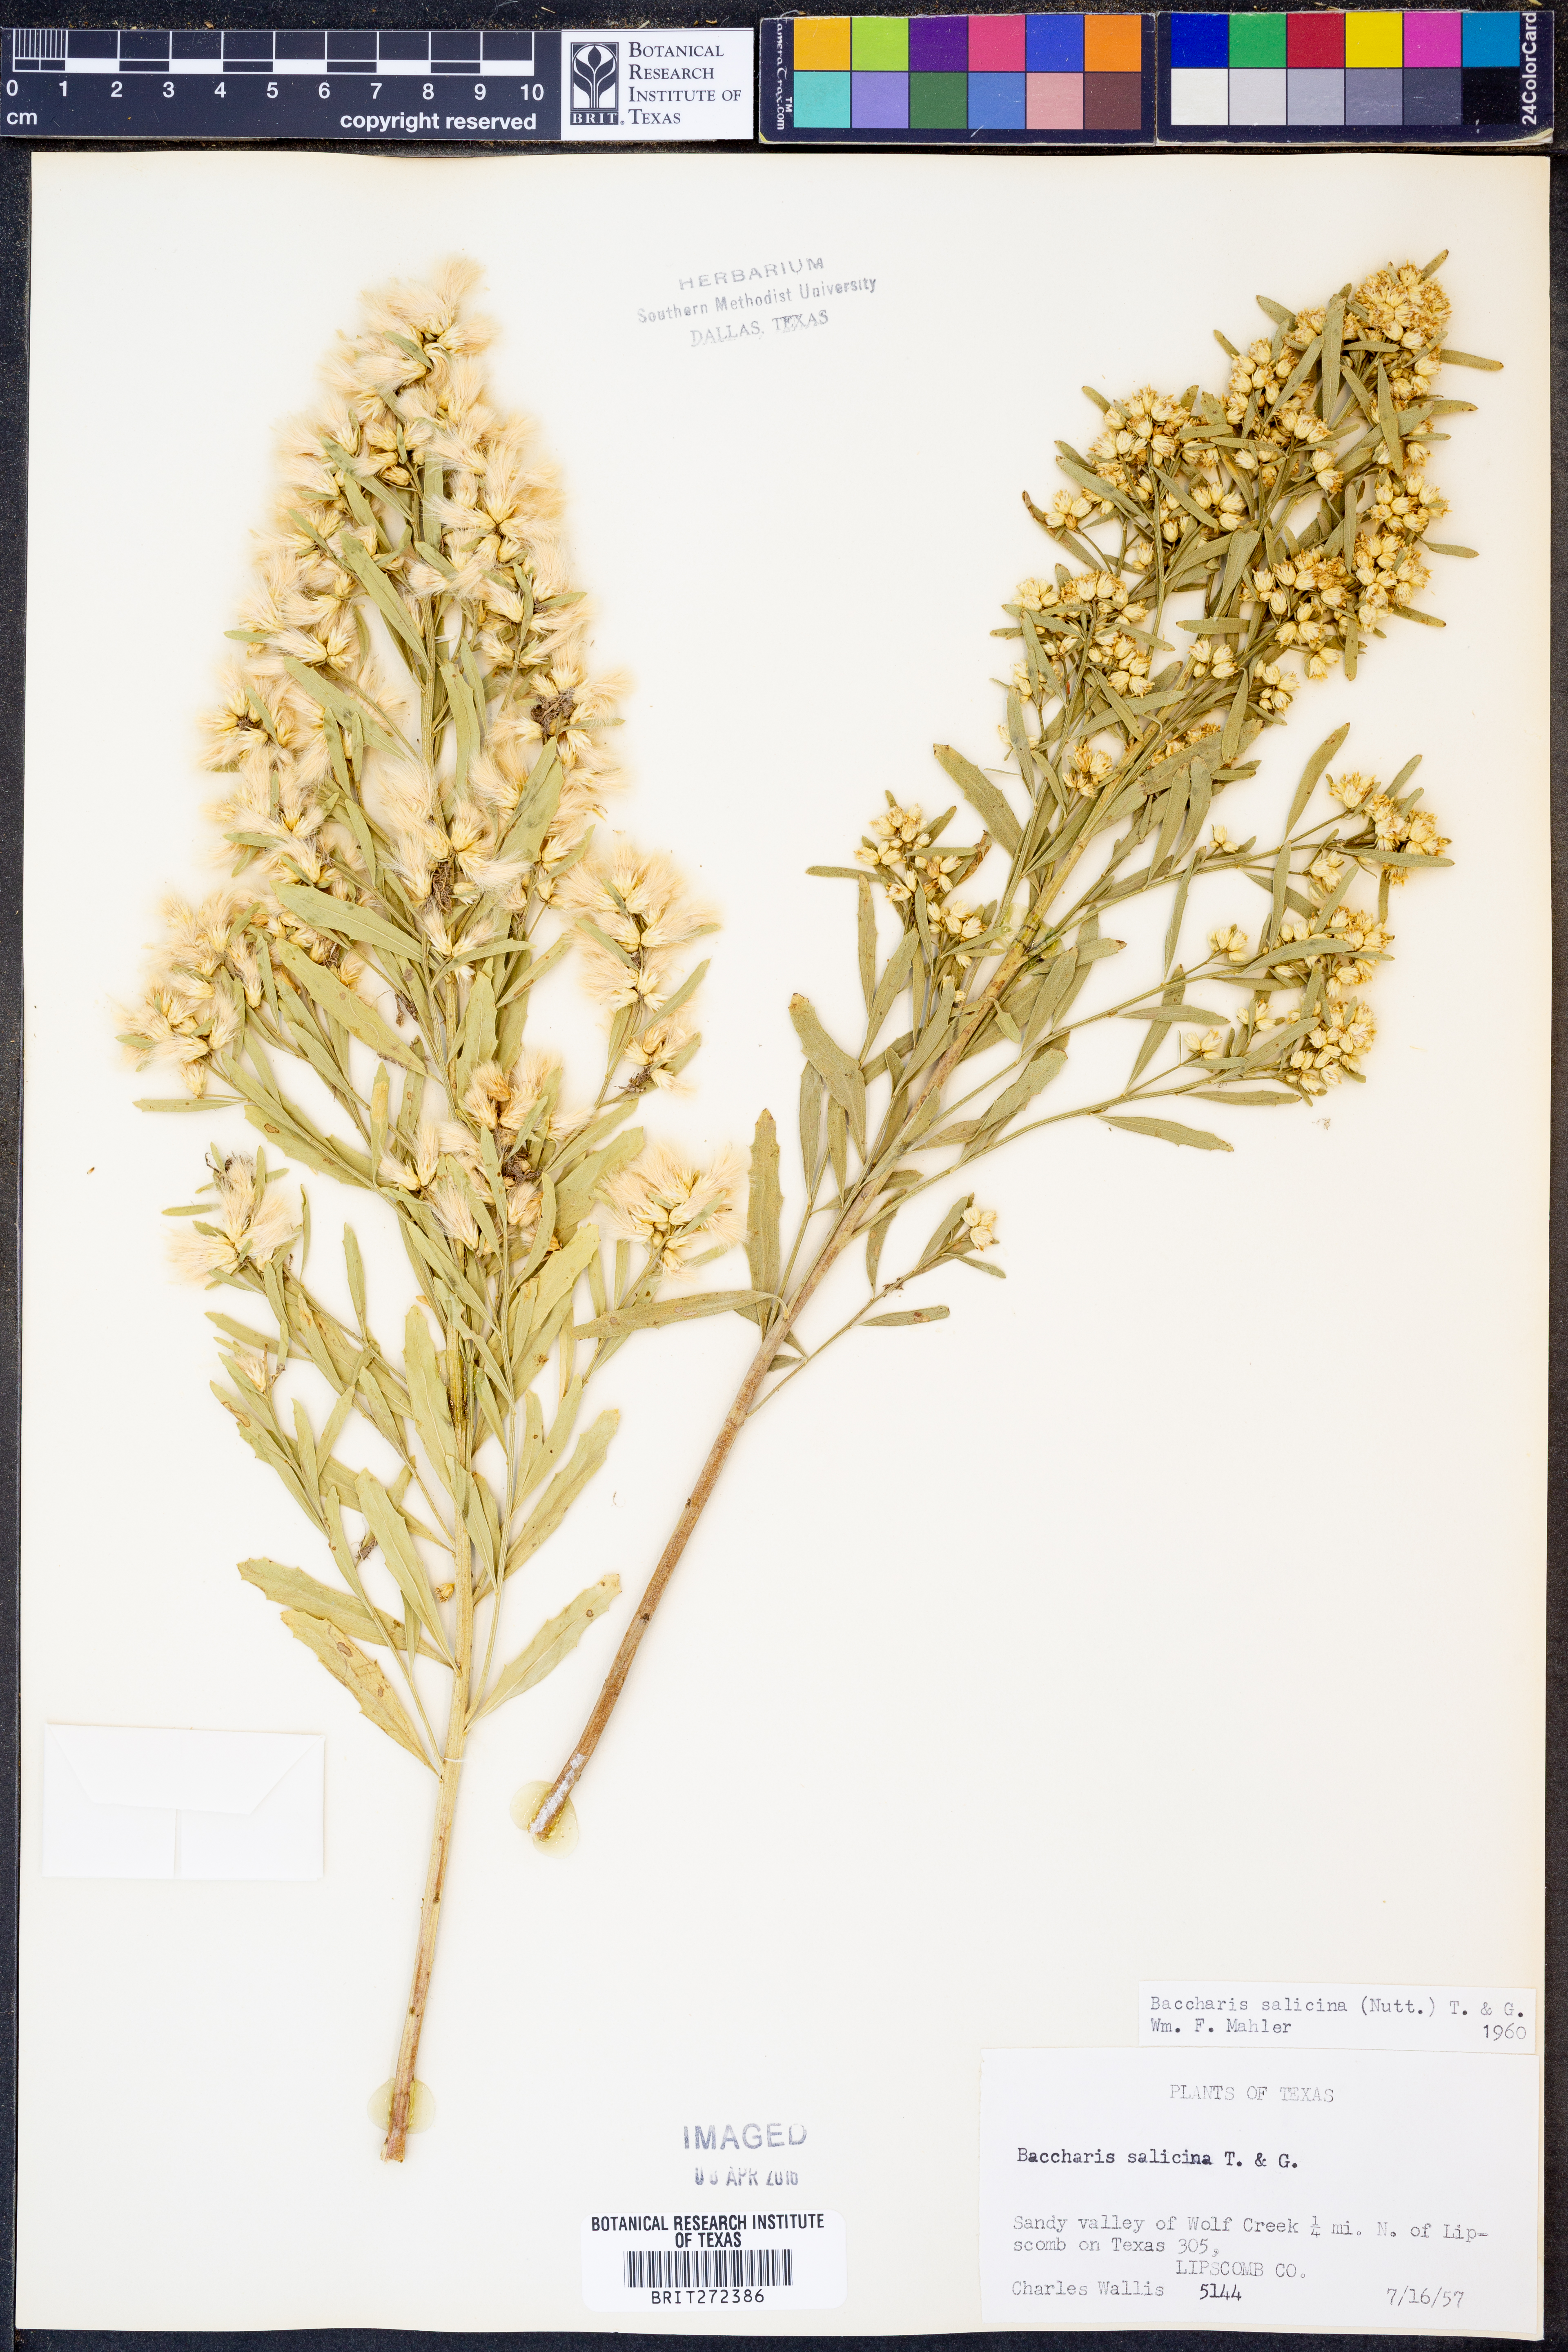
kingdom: Plantae
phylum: Tracheophyta
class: Magnoliopsida
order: Asterales
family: Asteraceae
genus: Baccharis
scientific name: Baccharis salicina
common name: Willow baccharis
